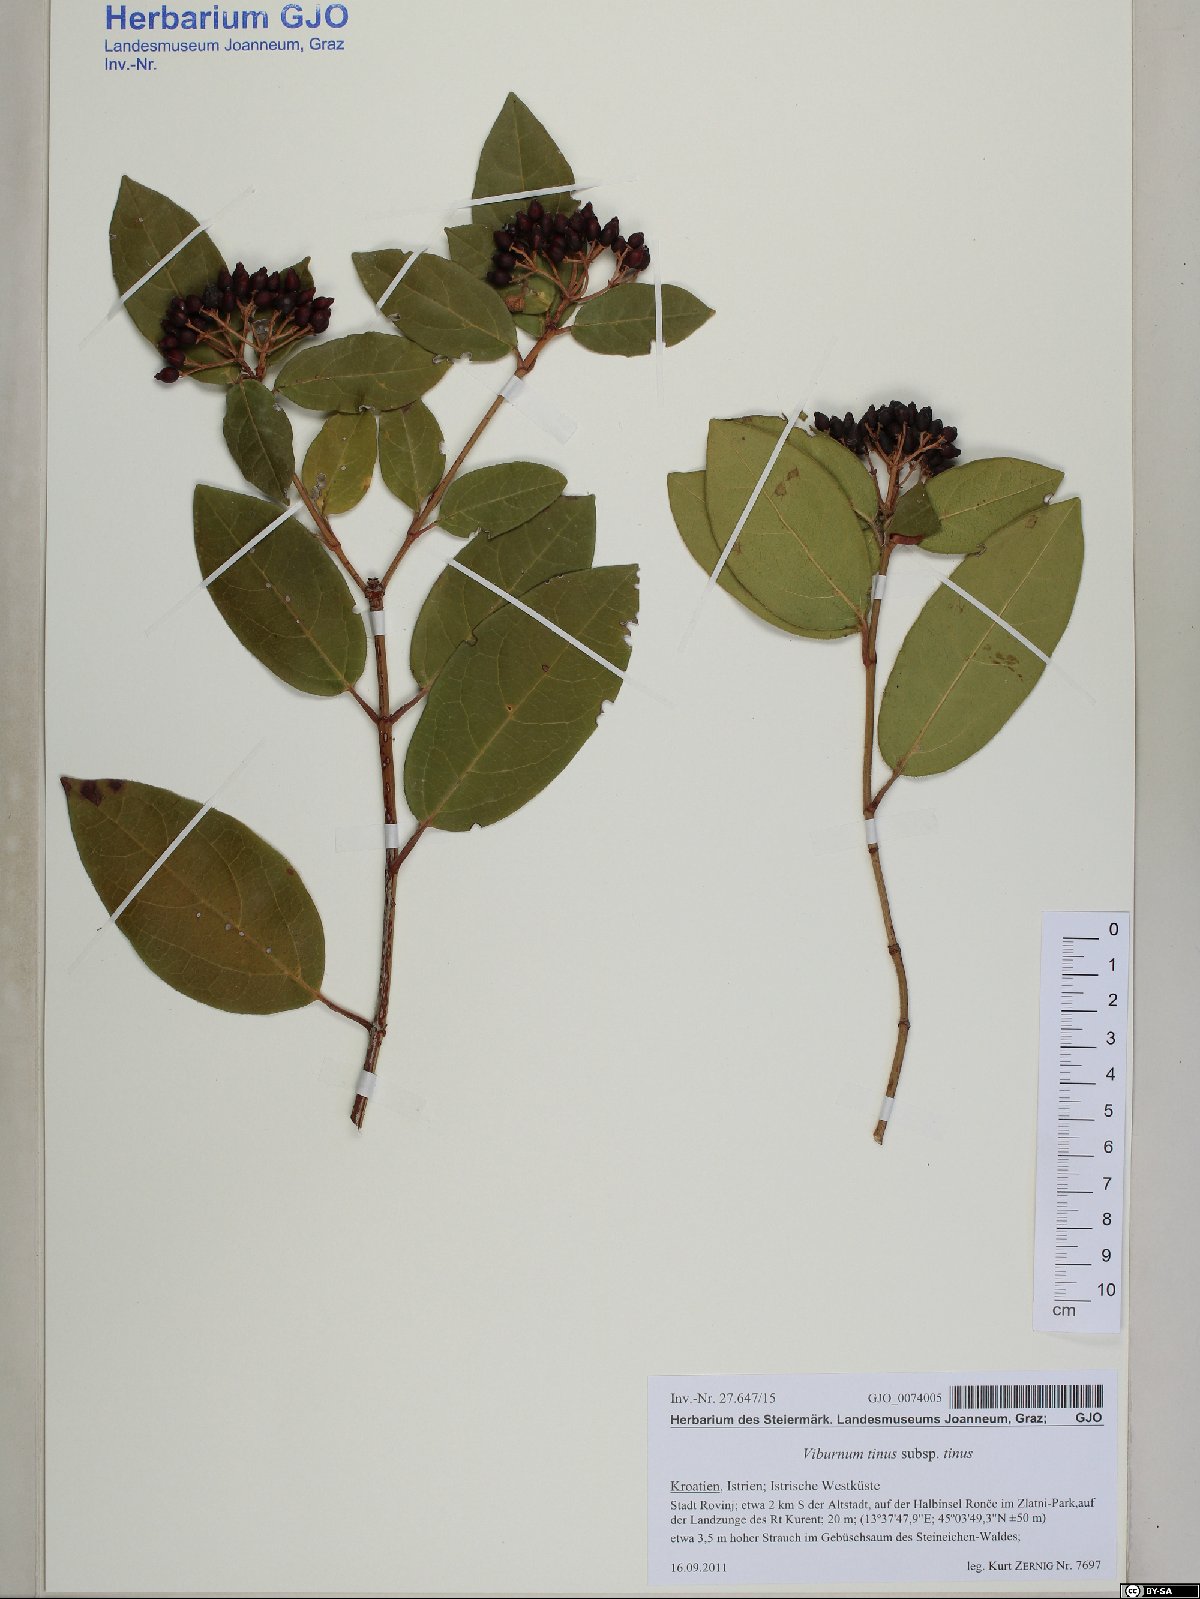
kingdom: Plantae
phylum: Tracheophyta
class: Magnoliopsida
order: Dipsacales
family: Viburnaceae
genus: Viburnum
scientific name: Viburnum tinus
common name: Laurustinus
